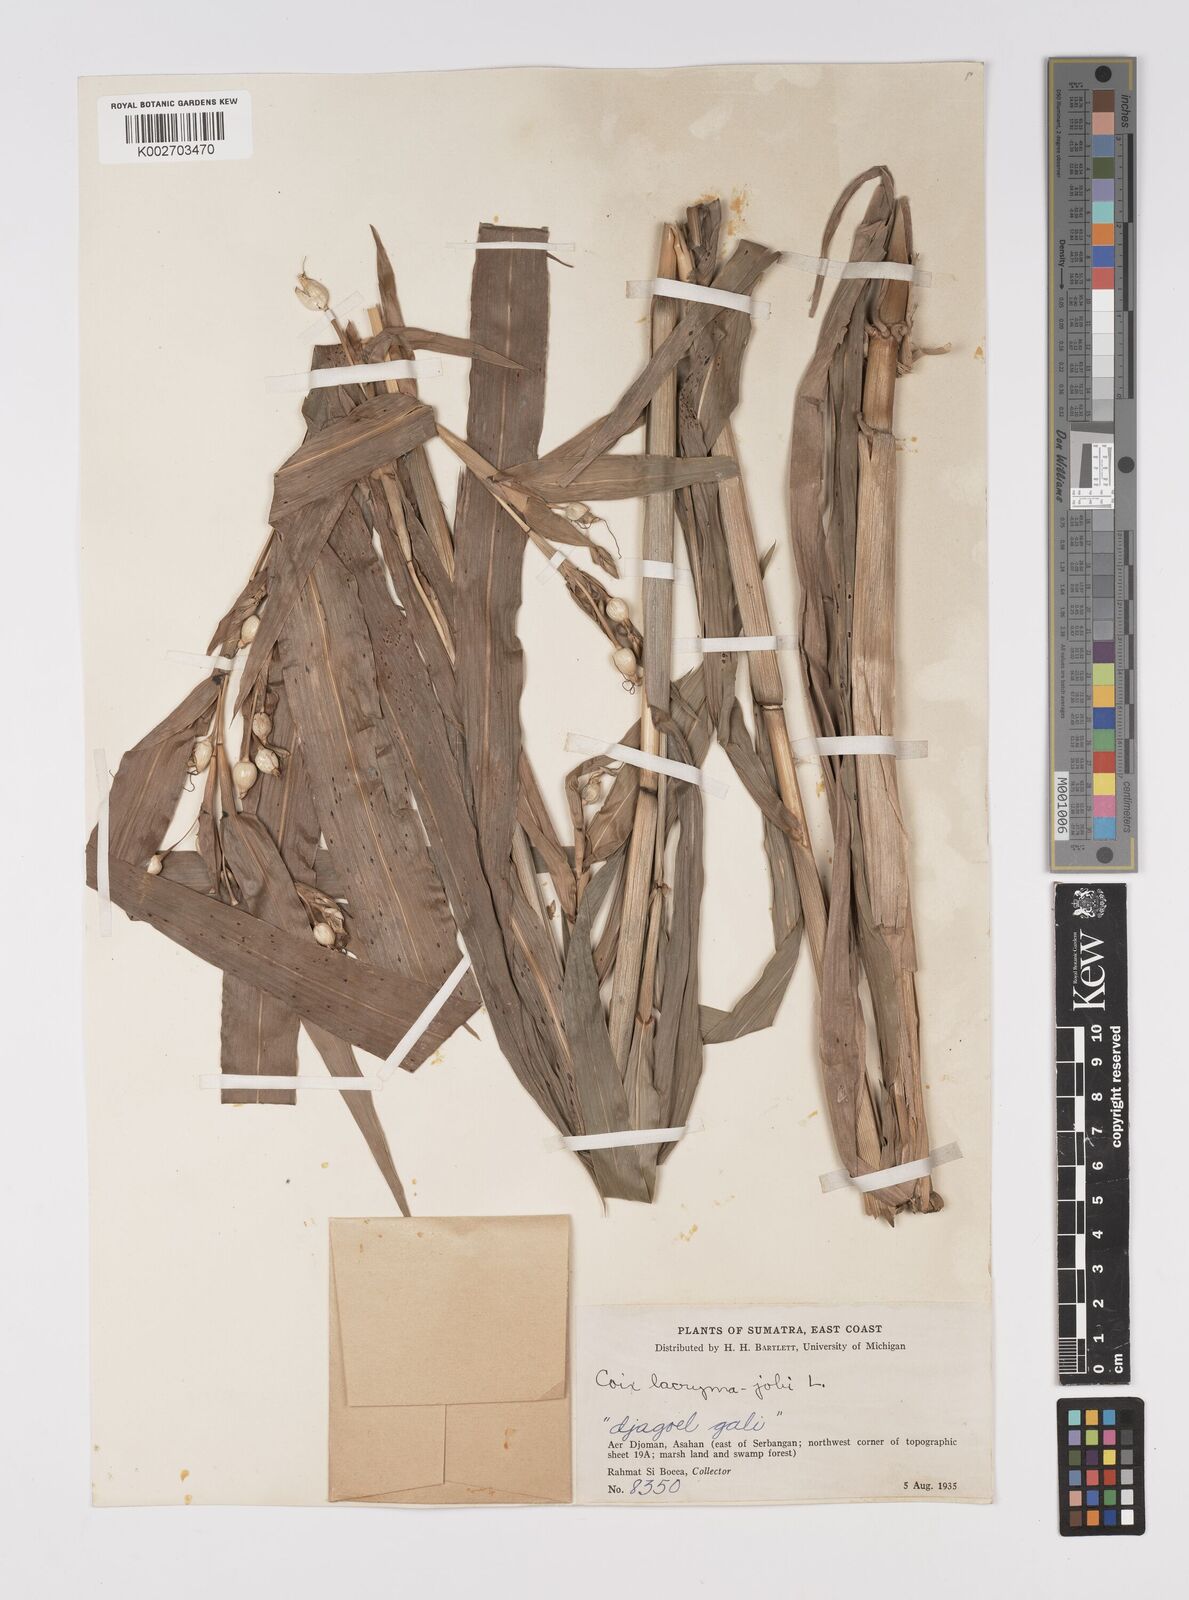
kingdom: Plantae
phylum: Tracheophyta
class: Liliopsida
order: Poales
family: Poaceae
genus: Coix
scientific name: Coix lacryma-jobi
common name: Job's tears
